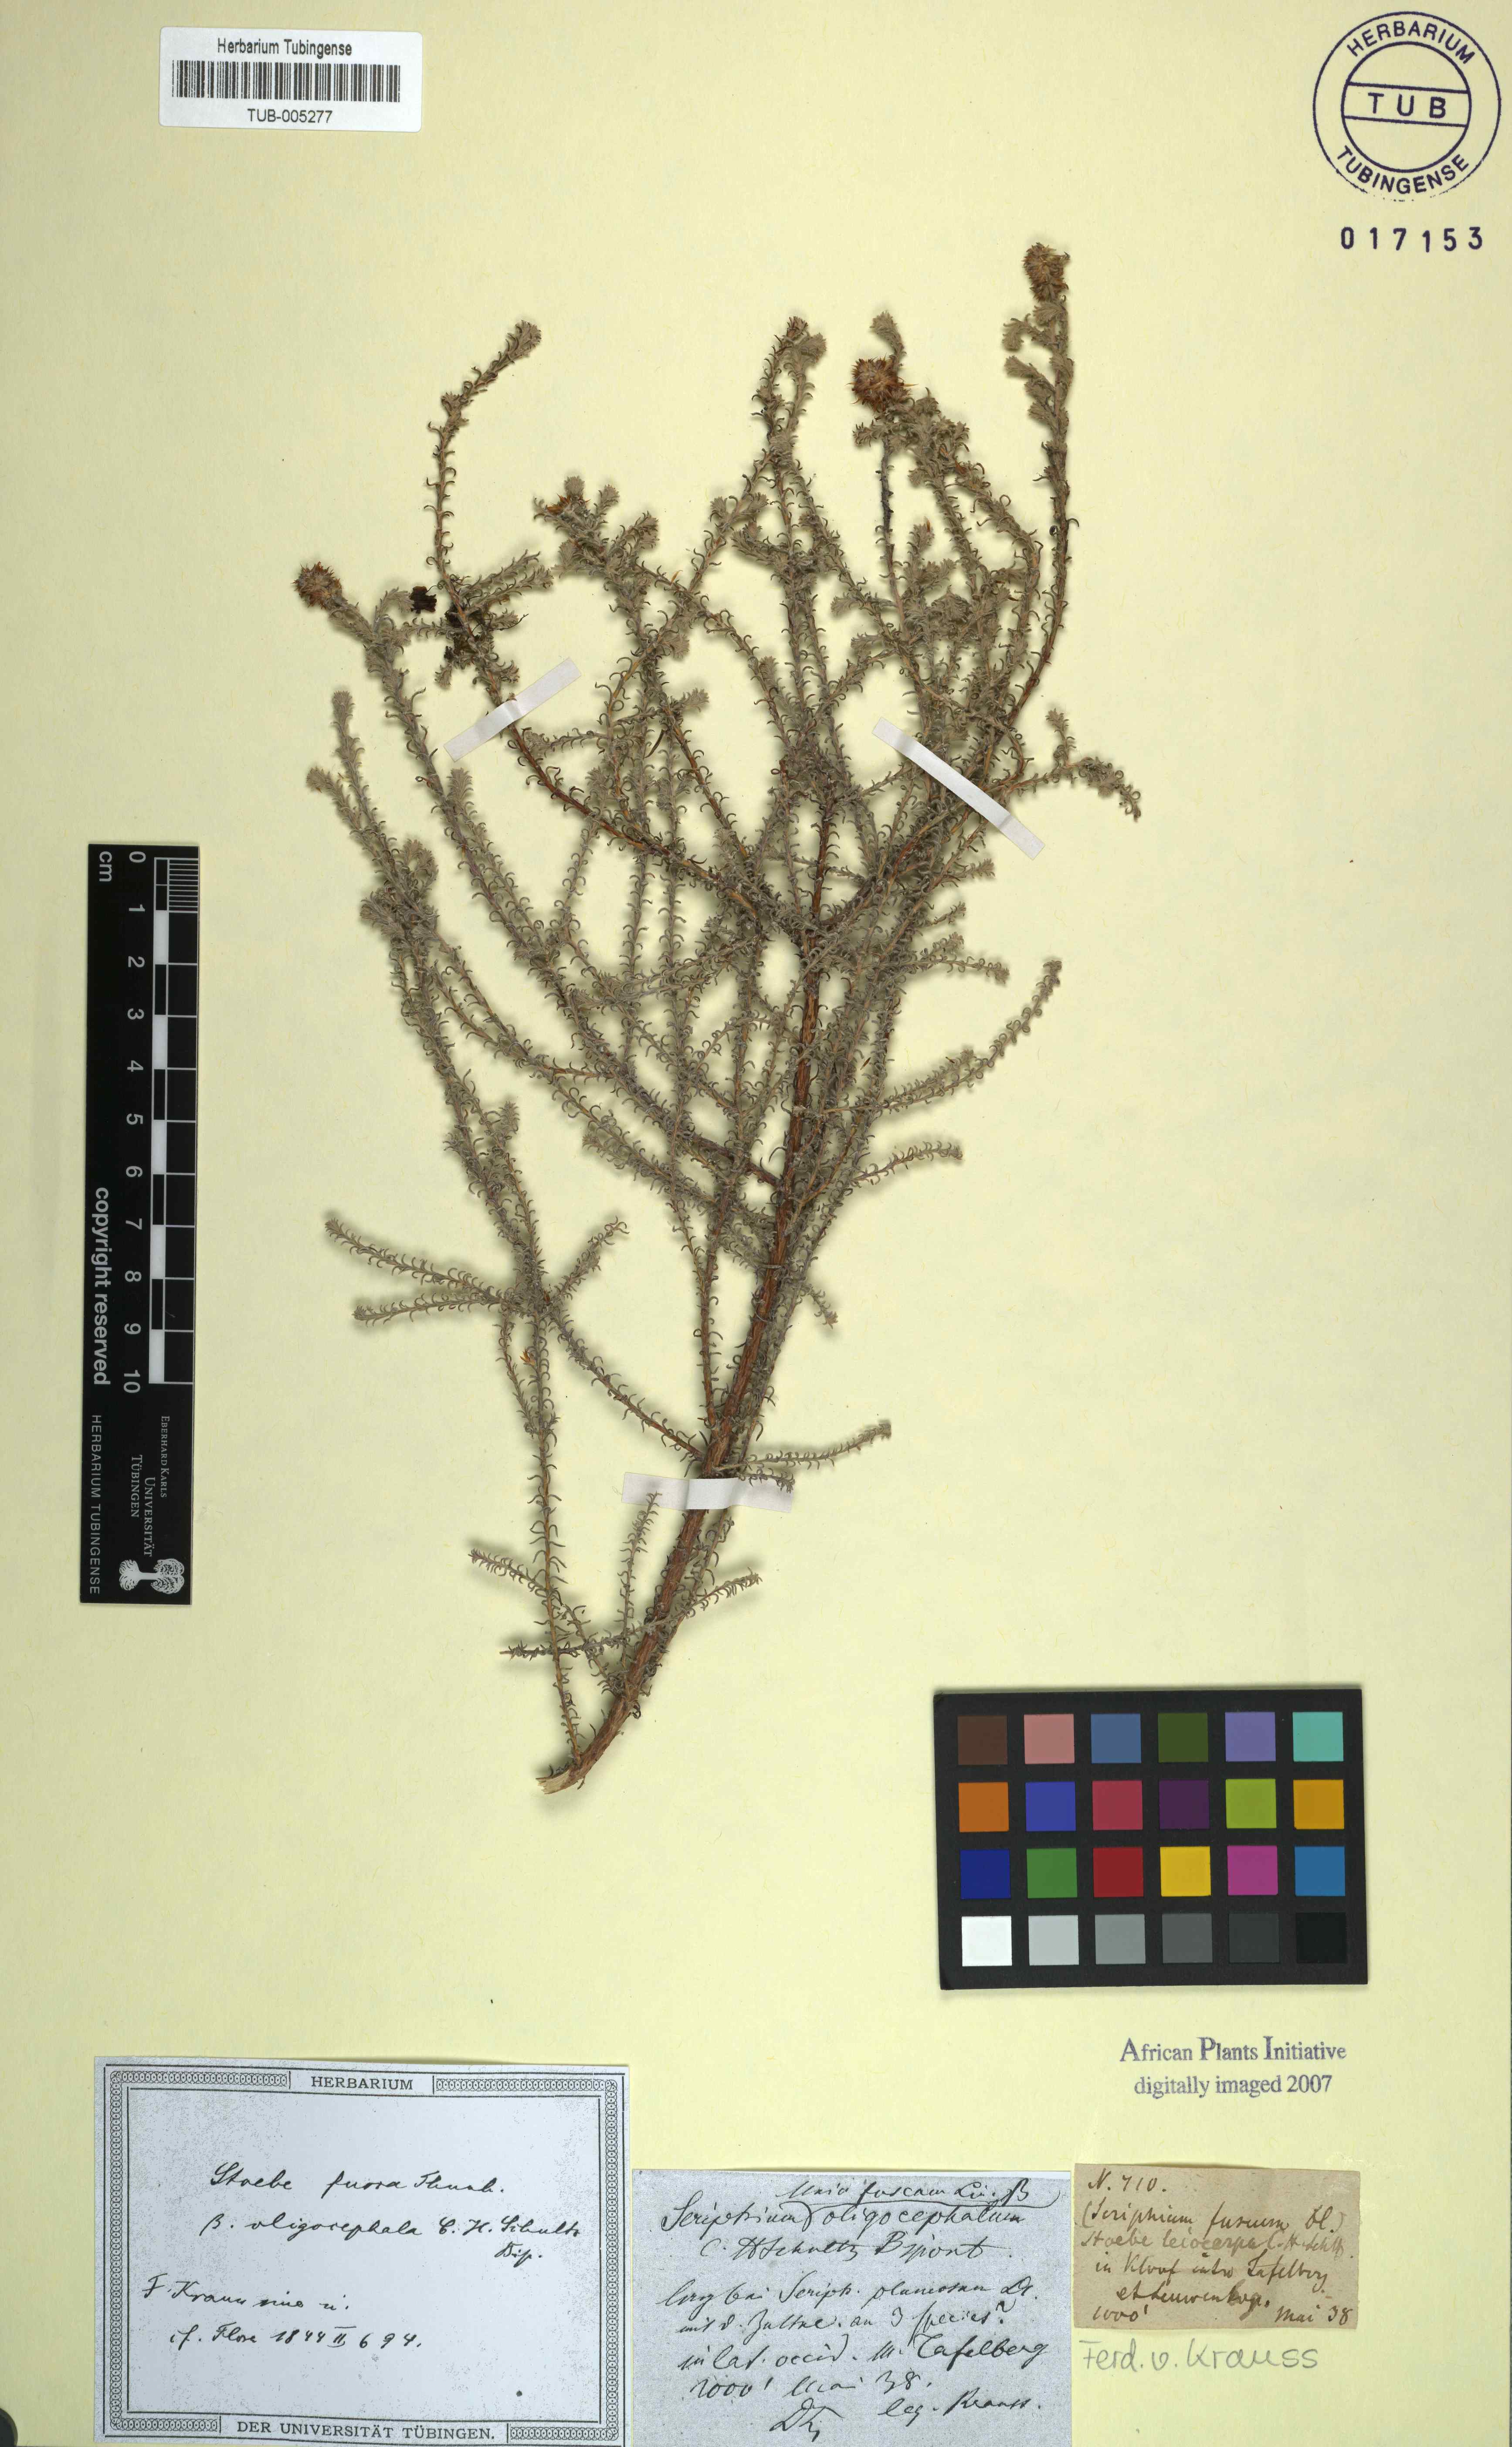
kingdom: Plantae
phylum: Tracheophyta
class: Magnoliopsida
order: Asterales
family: Asteraceae
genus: Stoebe
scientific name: Stoebe fusca
